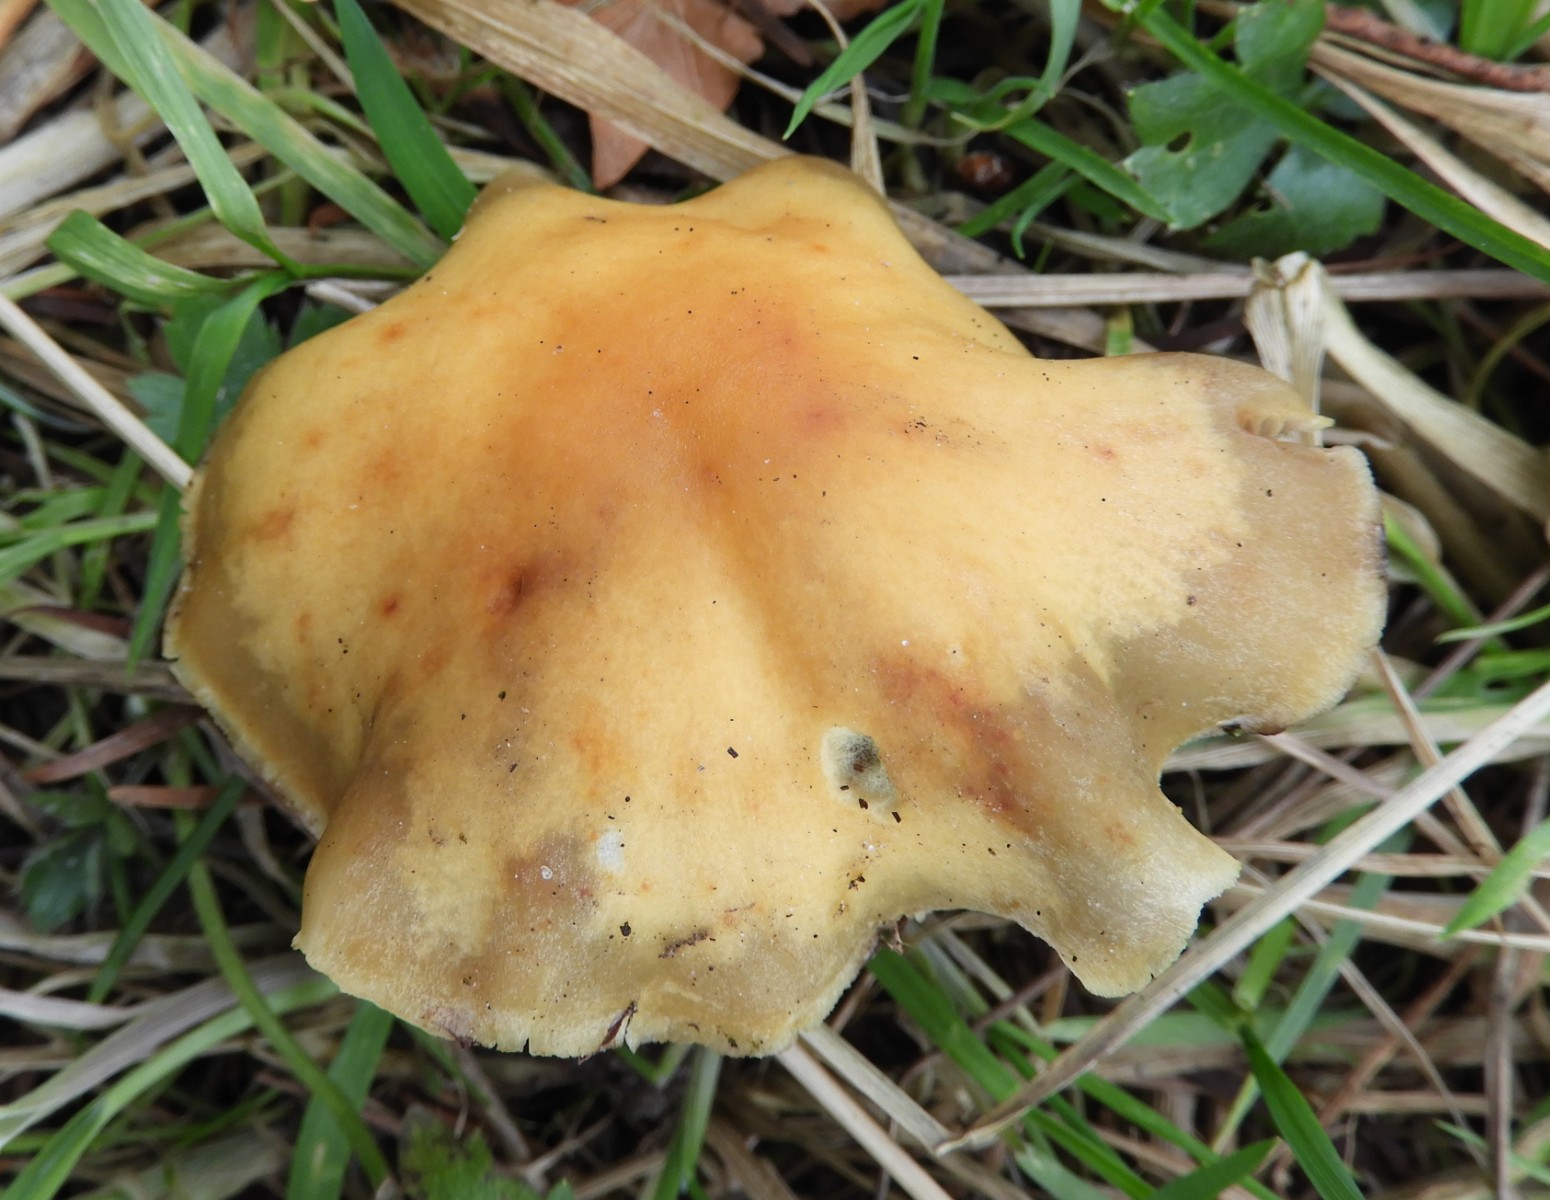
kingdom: Fungi
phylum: Basidiomycota
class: Agaricomycetes
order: Agaricales
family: Strophariaceae
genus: Hypholoma
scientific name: Hypholoma capnoides
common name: gran-svovlhat
